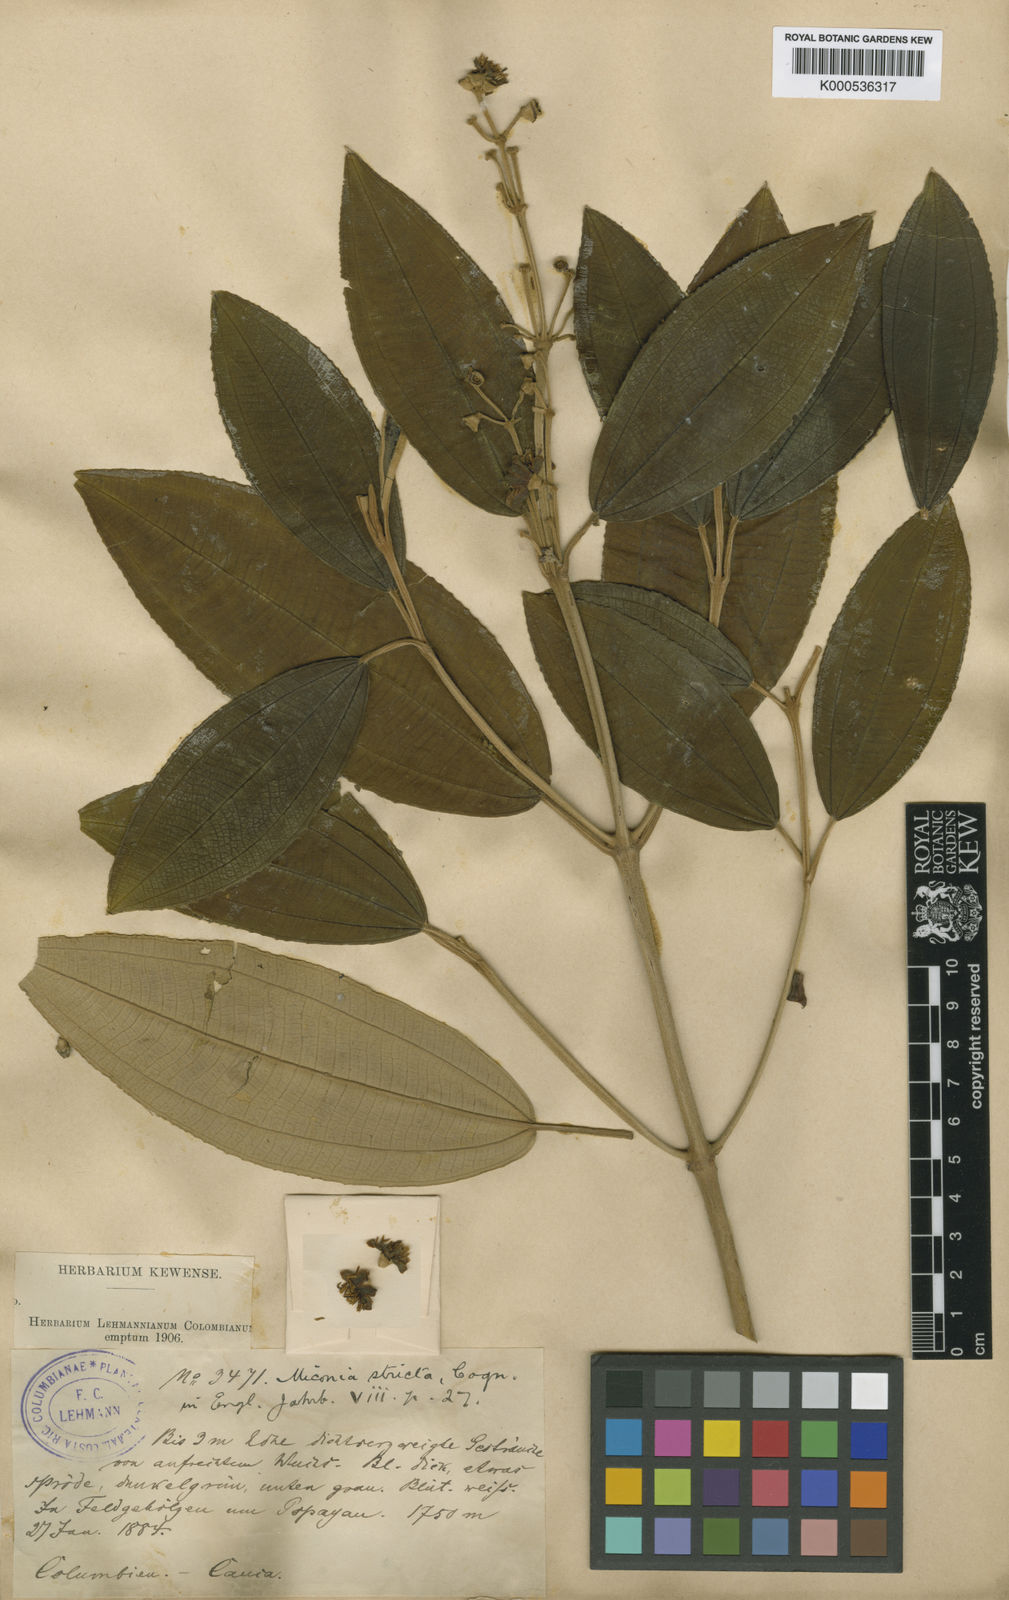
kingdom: Plantae
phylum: Tracheophyta
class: Magnoliopsida
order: Myrtales
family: Melastomataceae
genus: Miconia
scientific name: Miconia versicolor
